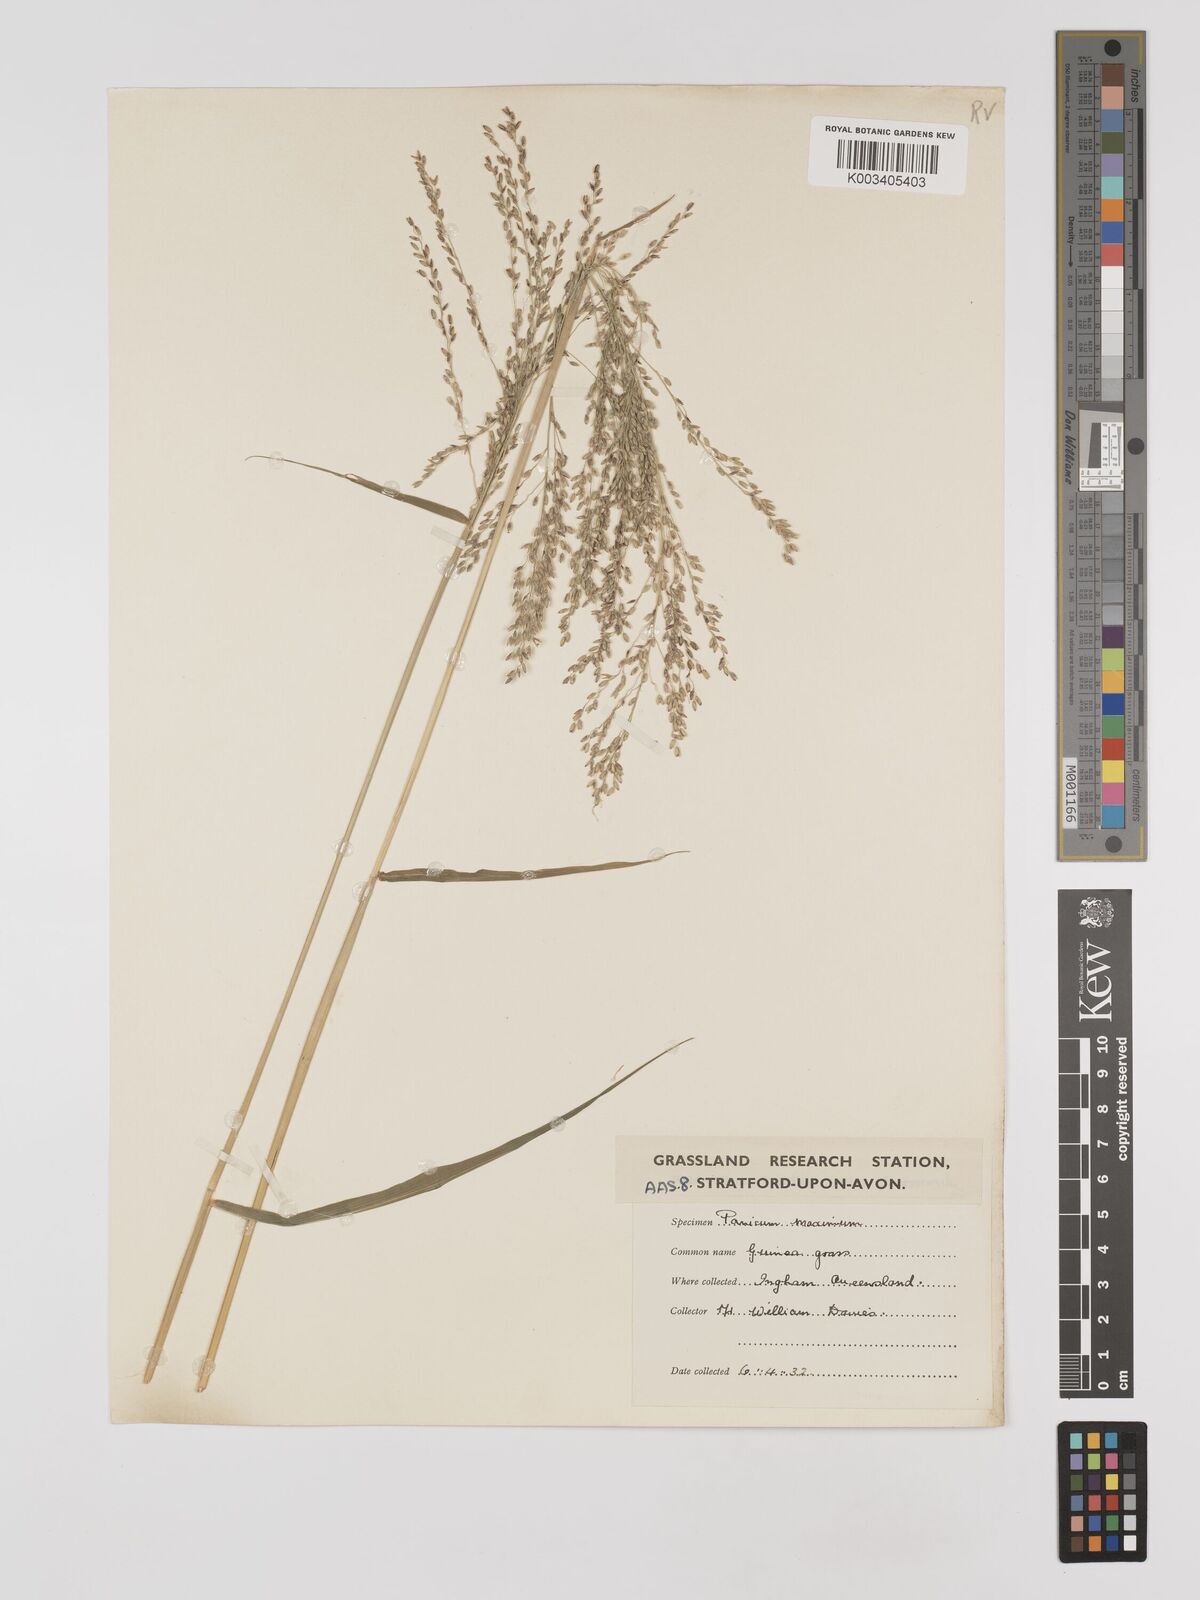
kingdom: Plantae
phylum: Tracheophyta
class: Liliopsida
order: Poales
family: Poaceae
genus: Megathyrsus
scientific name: Megathyrsus maximus
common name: Guineagrass
